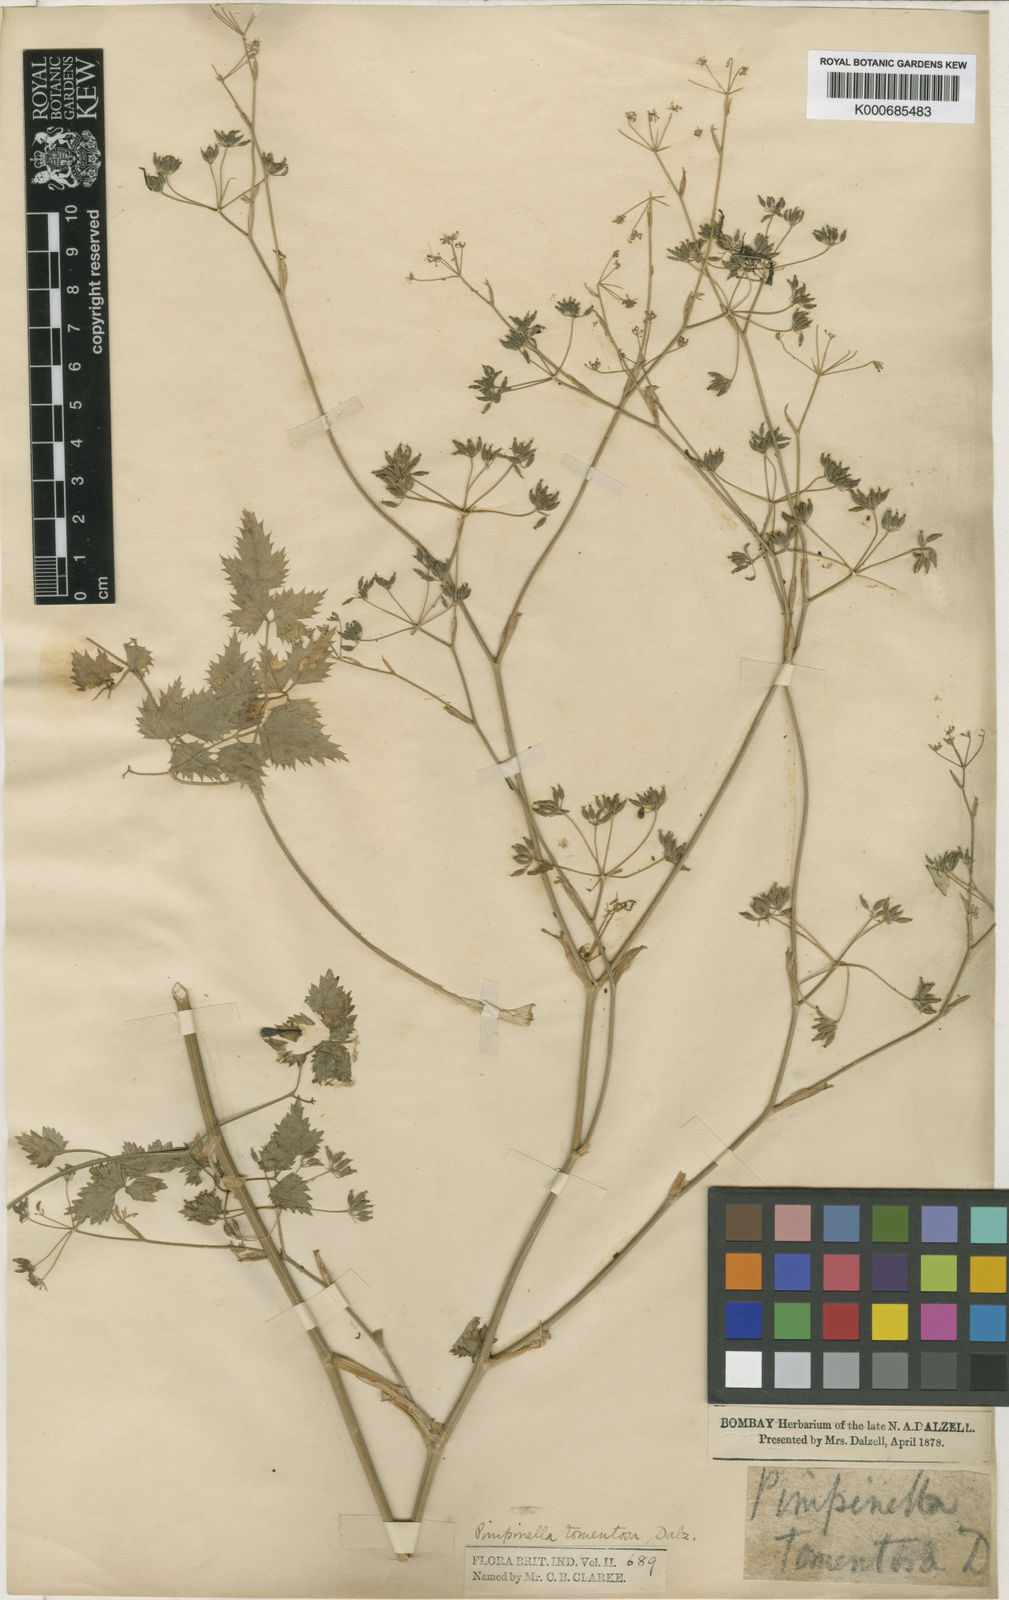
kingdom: Plantae
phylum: Tracheophyta
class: Magnoliopsida
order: Apiales
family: Apiaceae
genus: Pimpinella
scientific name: Pimpinella
